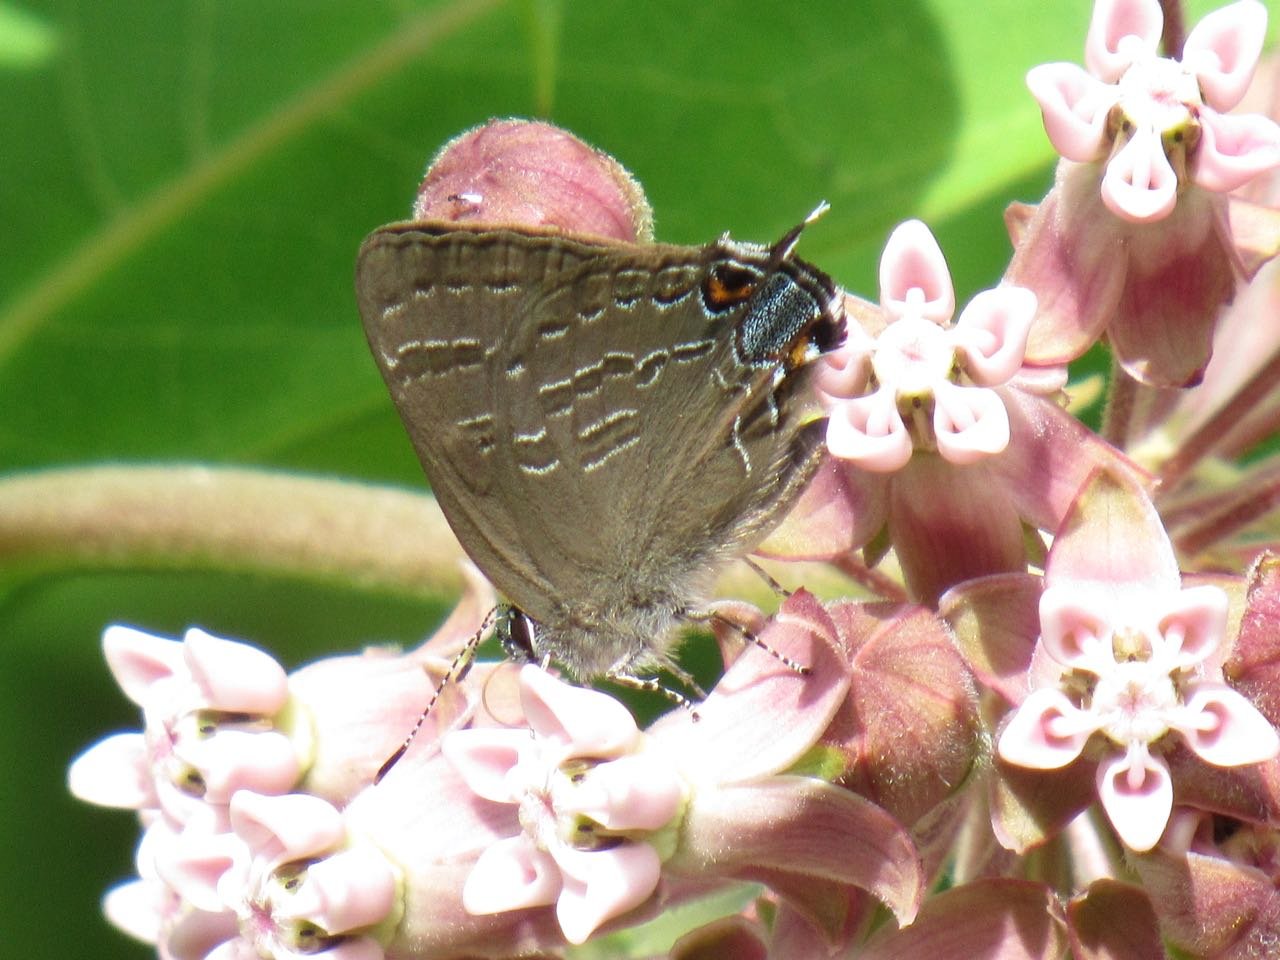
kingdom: Animalia
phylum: Arthropoda
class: Insecta
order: Lepidoptera
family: Lycaenidae
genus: Strymon
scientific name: Strymon caryaevorus
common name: Hickory Hairstreak
